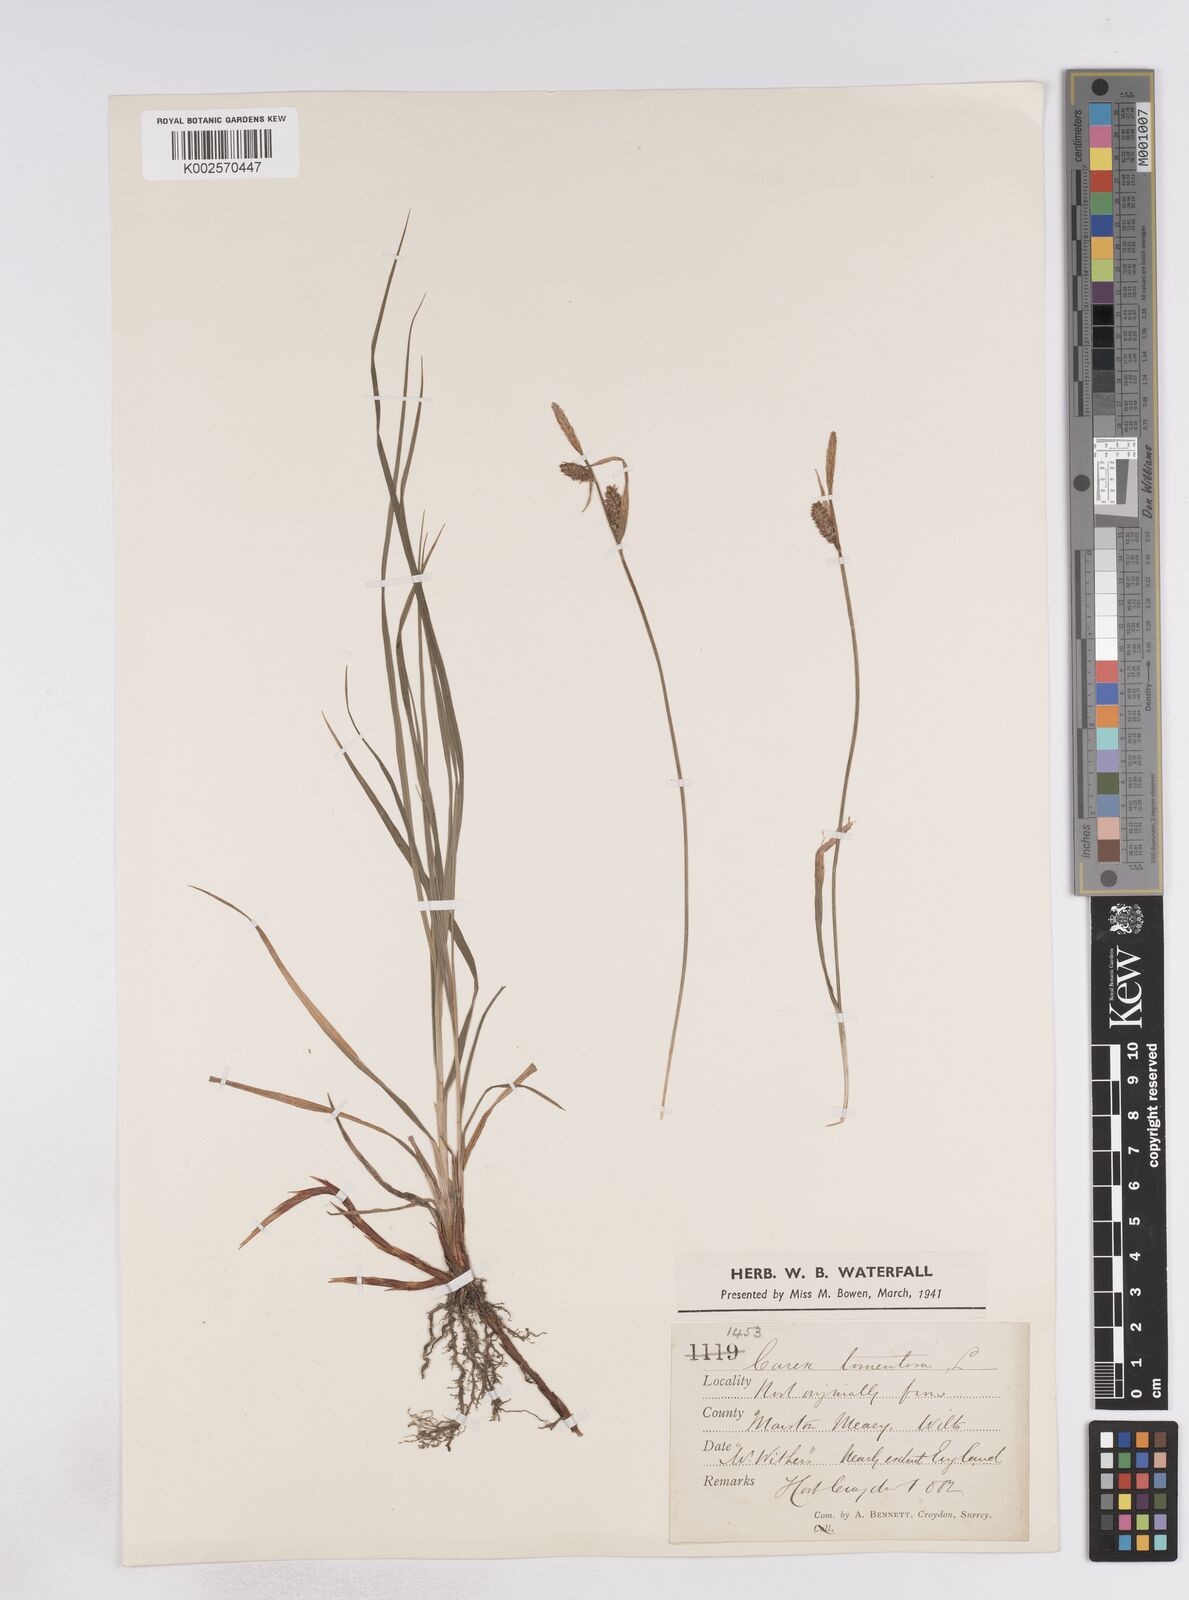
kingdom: Plantae
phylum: Tracheophyta
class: Liliopsida
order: Poales
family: Cyperaceae
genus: Carex
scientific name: Carex montana
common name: Soft-leaved sedge
